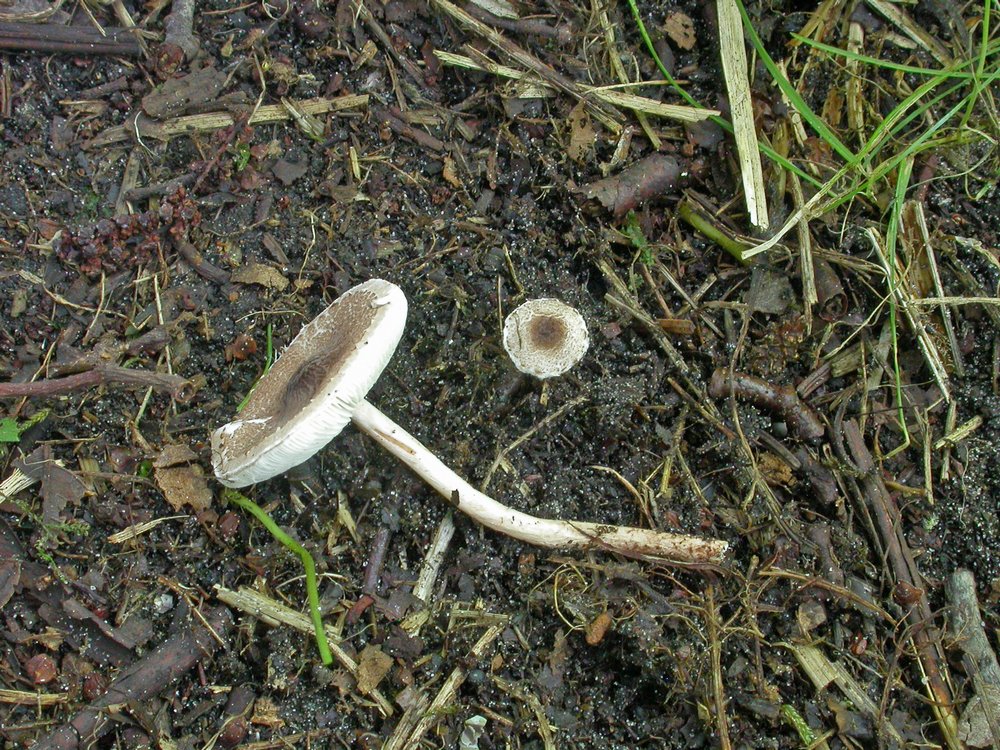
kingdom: Fungi
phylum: Basidiomycota
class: Agaricomycetes
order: Agaricales
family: Agaricaceae
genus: Lepiota
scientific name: Lepiota echinella
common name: finskællet parasolhat
